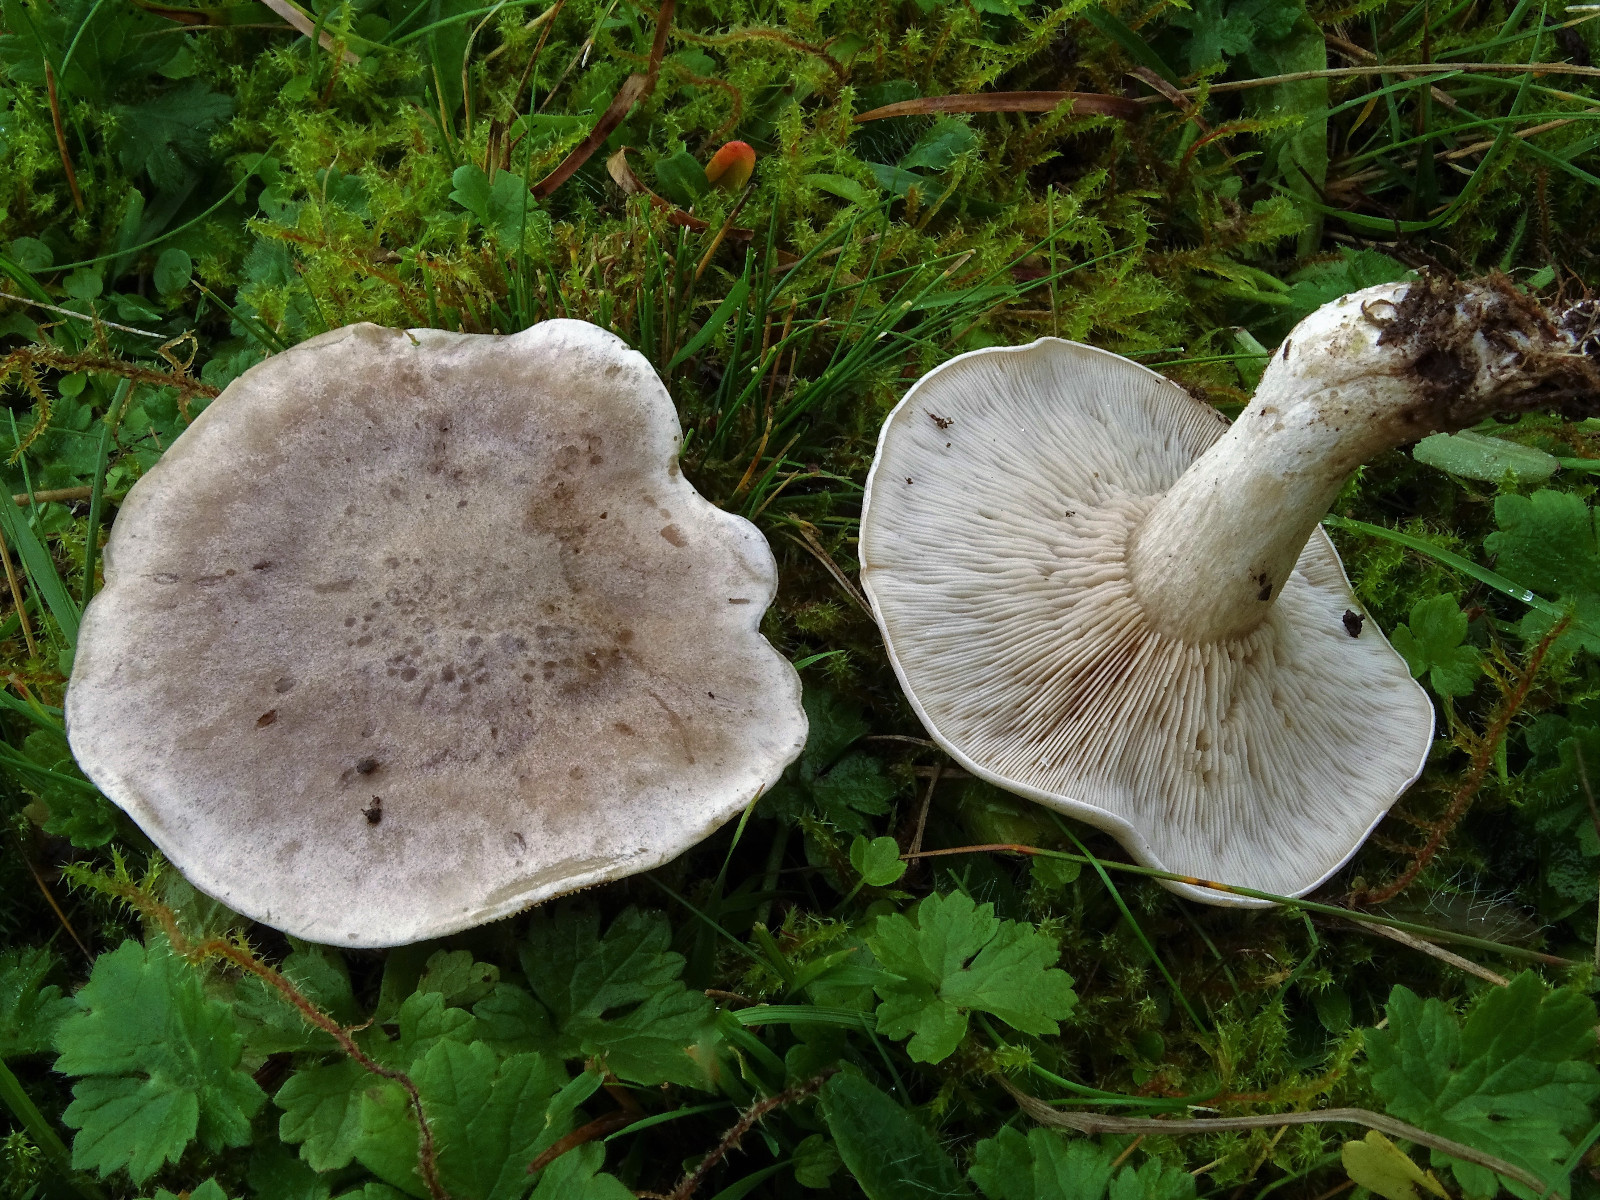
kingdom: Fungi
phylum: Basidiomycota
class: Agaricomycetes
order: Agaricales
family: Tricholomataceae
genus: Lepista
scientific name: Lepista panaeolus
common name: marmoreret hekseringshat
